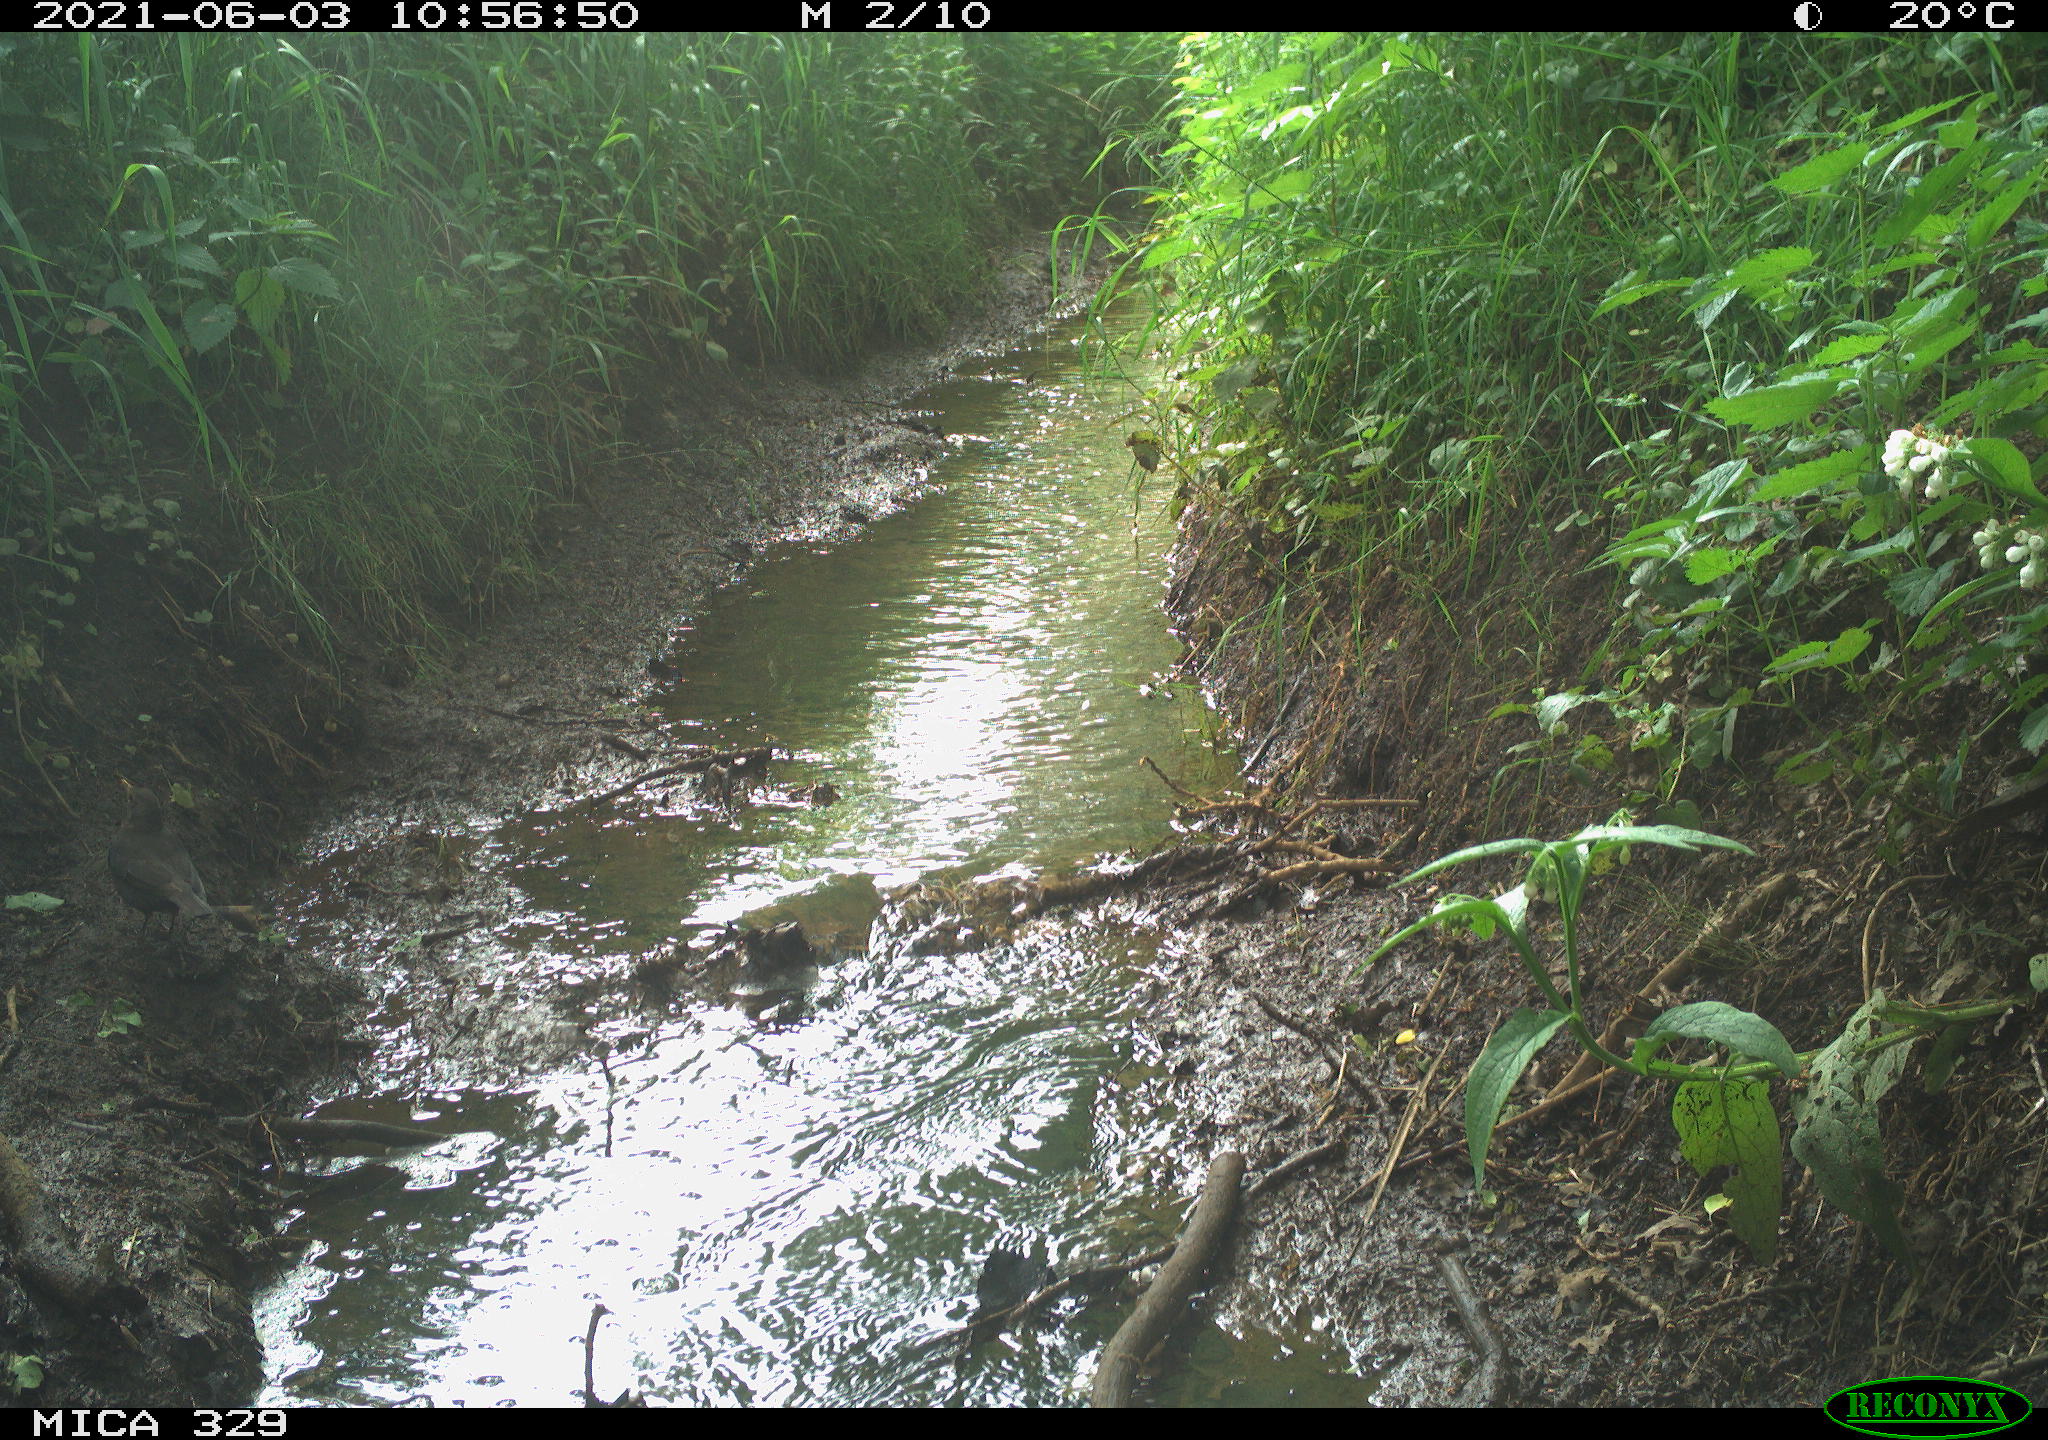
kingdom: Animalia
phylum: Chordata
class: Aves
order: Passeriformes
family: Turdidae
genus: Turdus
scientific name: Turdus merula
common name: Common blackbird
